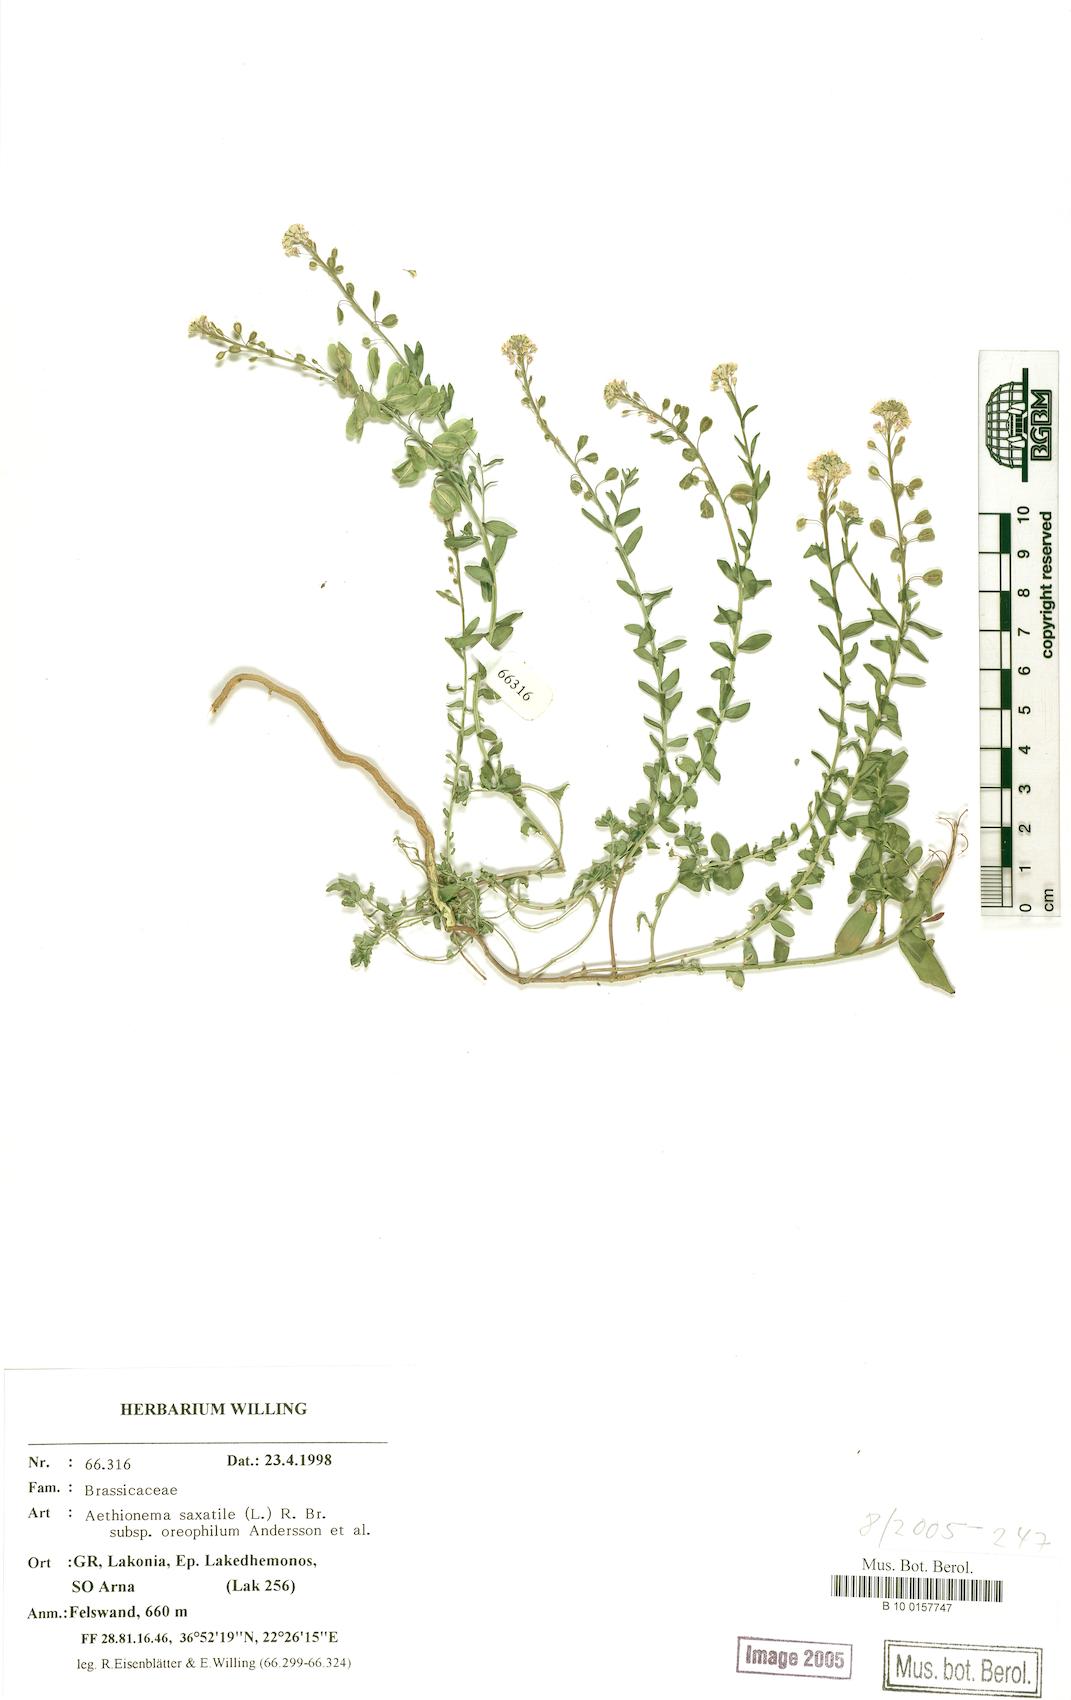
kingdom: Plantae
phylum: Tracheophyta
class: Magnoliopsida
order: Brassicales
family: Brassicaceae
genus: Aethionema
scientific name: Aethionema saxatile
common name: Burnt candytuft
